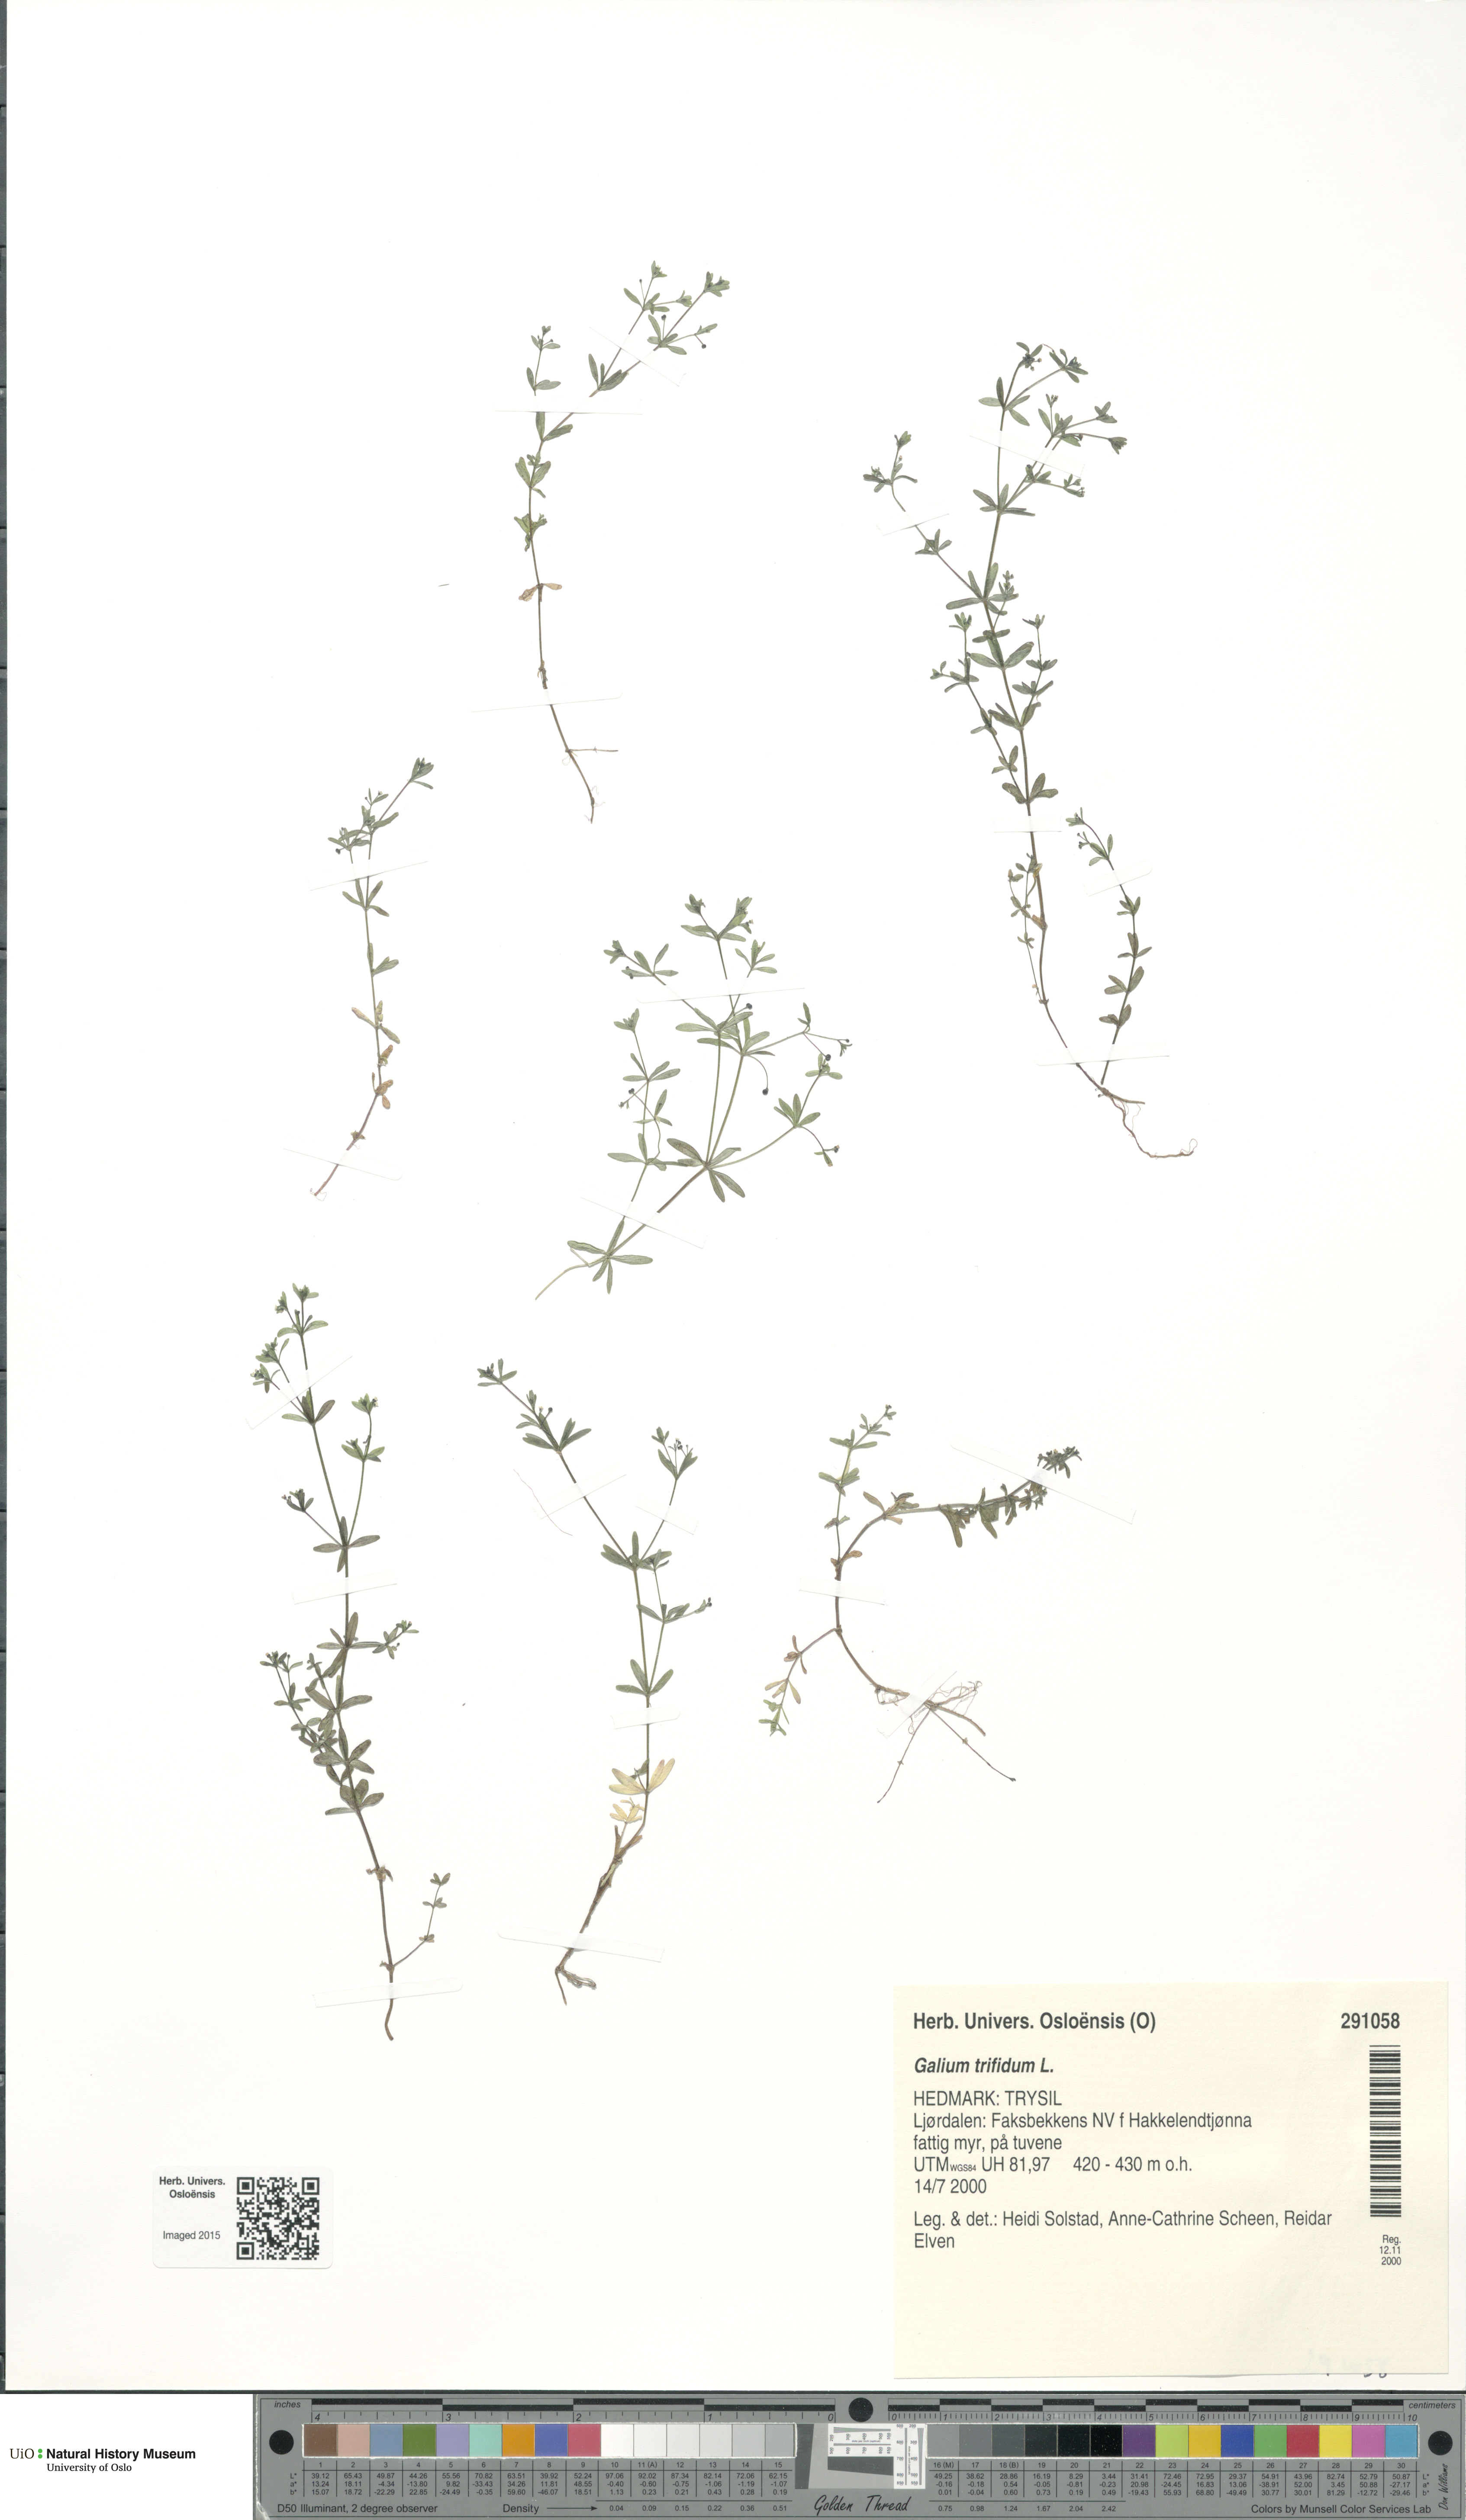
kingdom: Plantae
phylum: Tracheophyta
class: Magnoliopsida
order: Gentianales
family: Rubiaceae
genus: Galium
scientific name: Galium trifidum
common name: Small bedstraw
